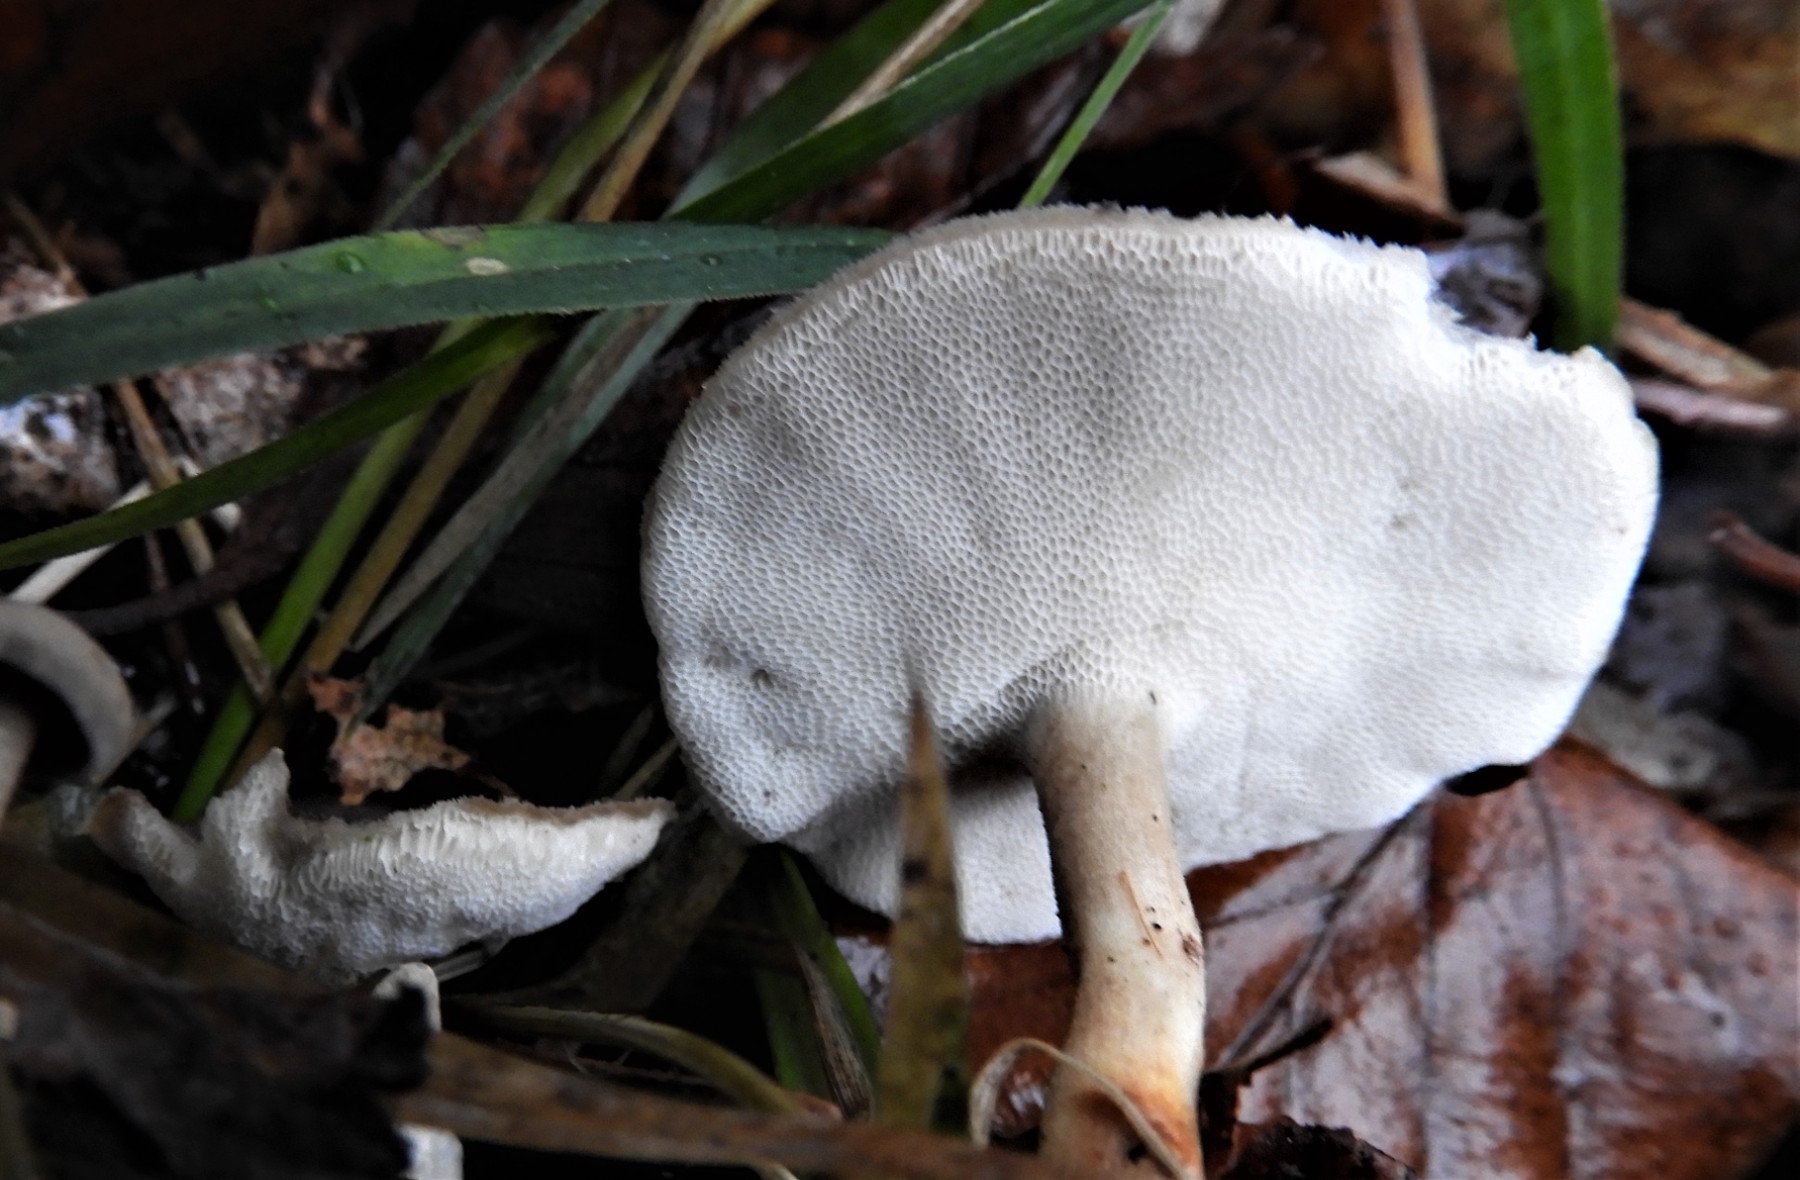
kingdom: Fungi
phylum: Basidiomycota
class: Agaricomycetes
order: Polyporales
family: Polyporaceae
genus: Lentinus
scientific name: Lentinus brumalis
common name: vinter-stilkporesvamp
